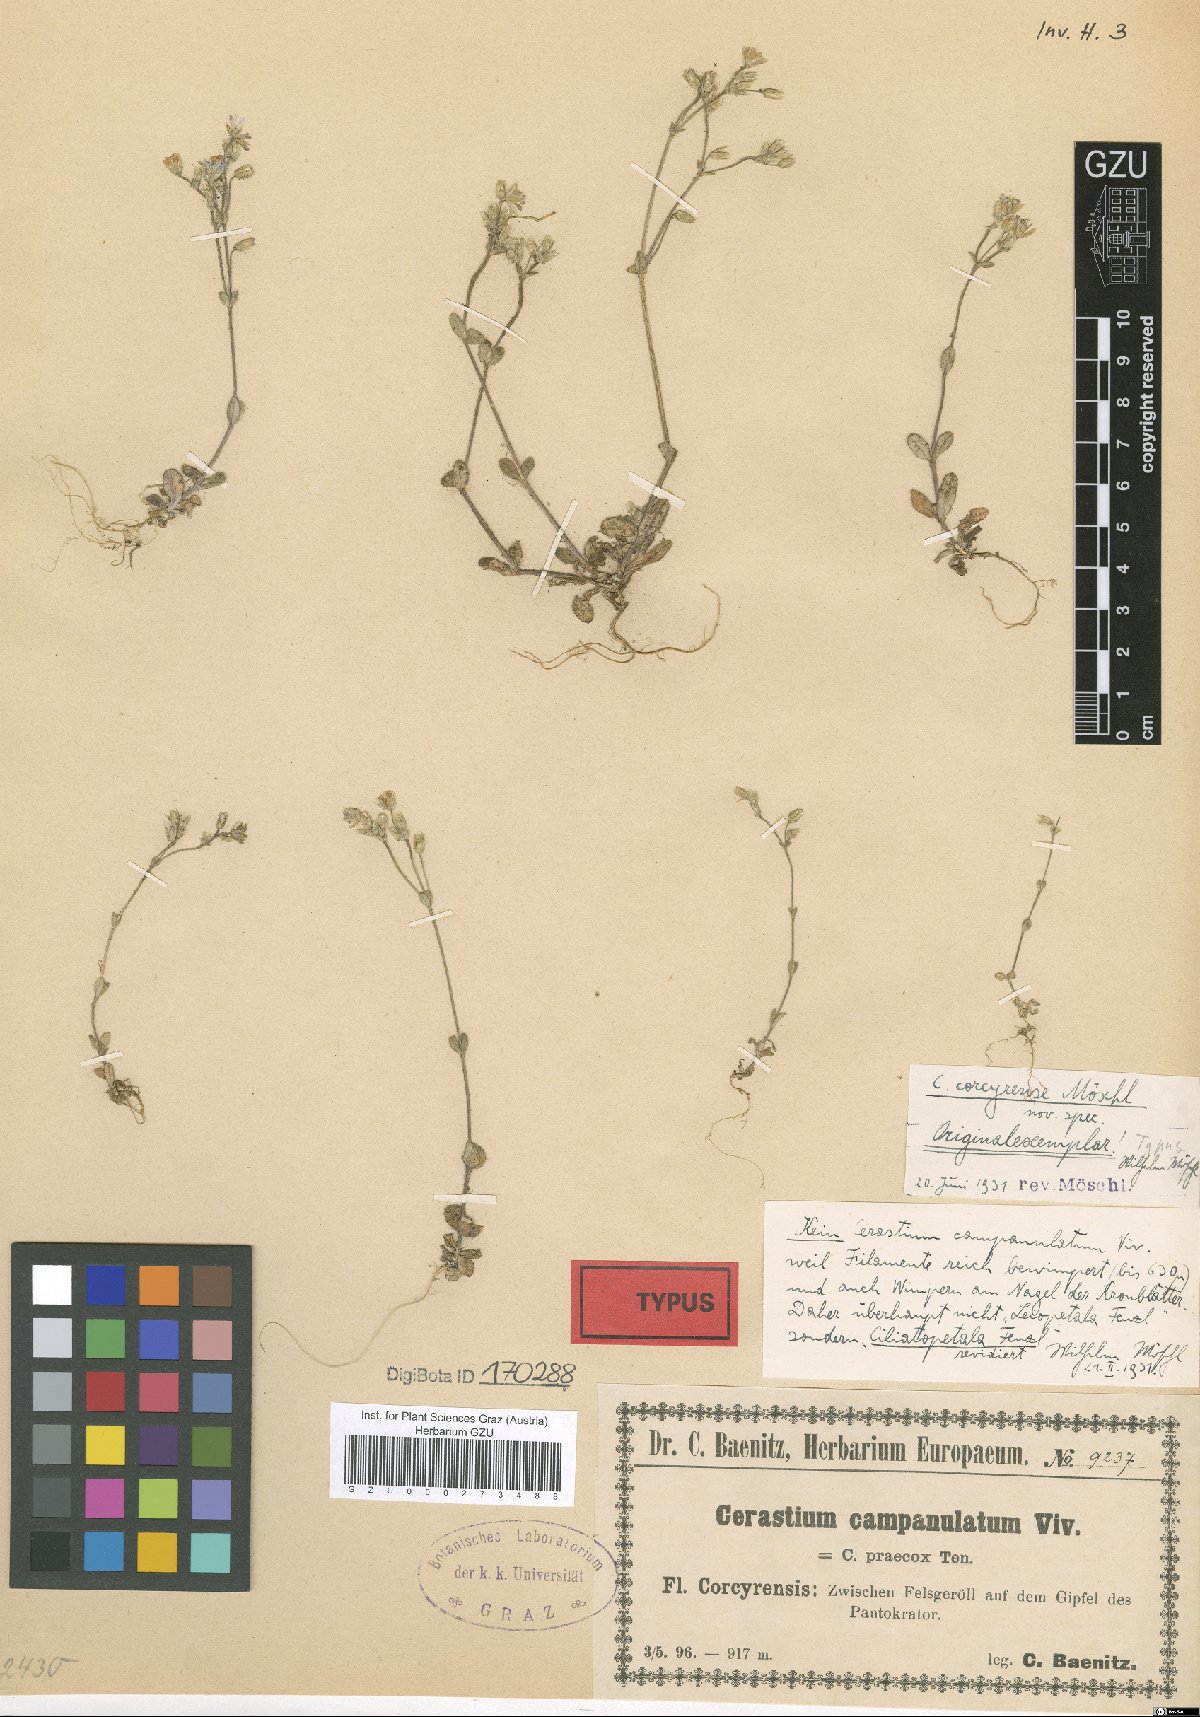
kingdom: Plantae
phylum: Tracheophyta
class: Magnoliopsida
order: Caryophyllales
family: Caryophyllaceae
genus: Cerastium
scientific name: Cerastium brachypetalum
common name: Grey mouse-ear
